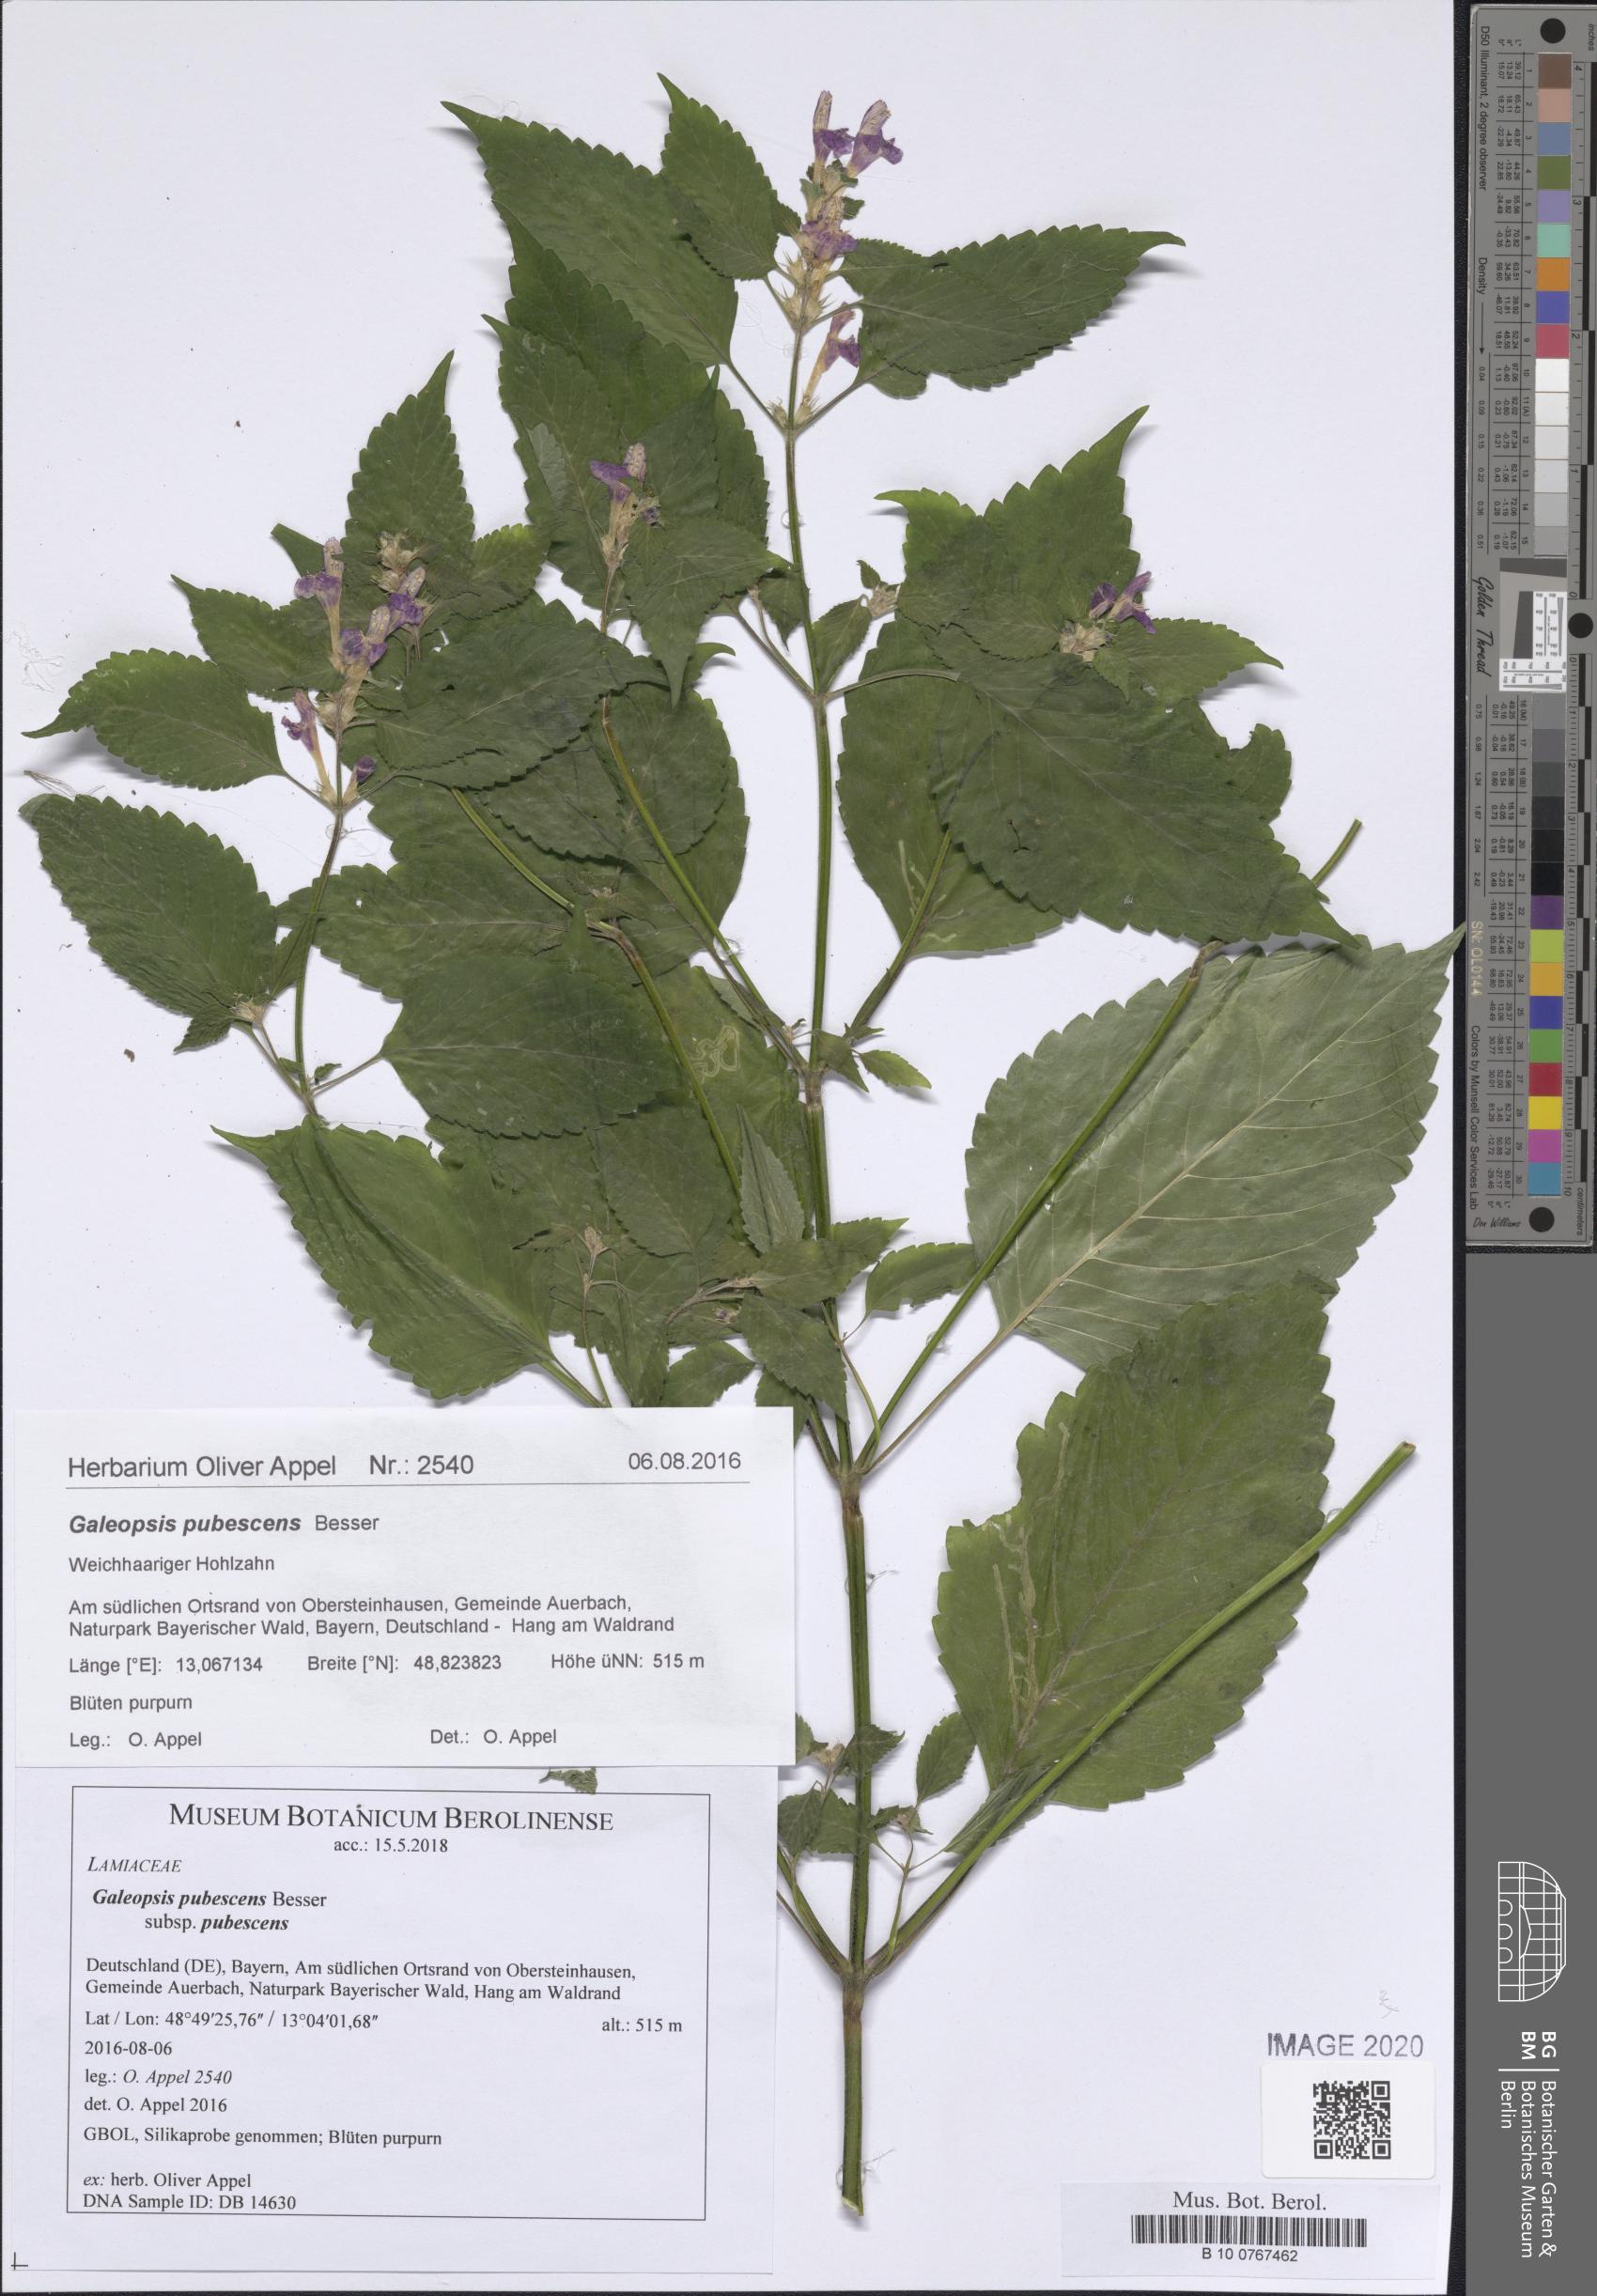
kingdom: Plantae
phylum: Tracheophyta
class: Magnoliopsida
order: Lamiales
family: Lamiaceae
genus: Galeopsis
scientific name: Galeopsis pubescens
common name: Downy hemp-nettle
